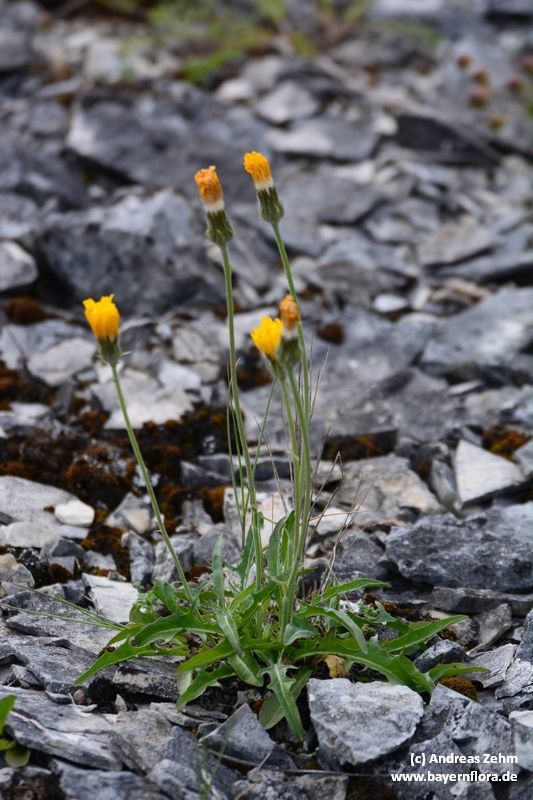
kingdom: Plantae
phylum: Tracheophyta
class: Magnoliopsida
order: Asterales
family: Asteraceae
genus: Crepis
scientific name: Crepis alpestris
